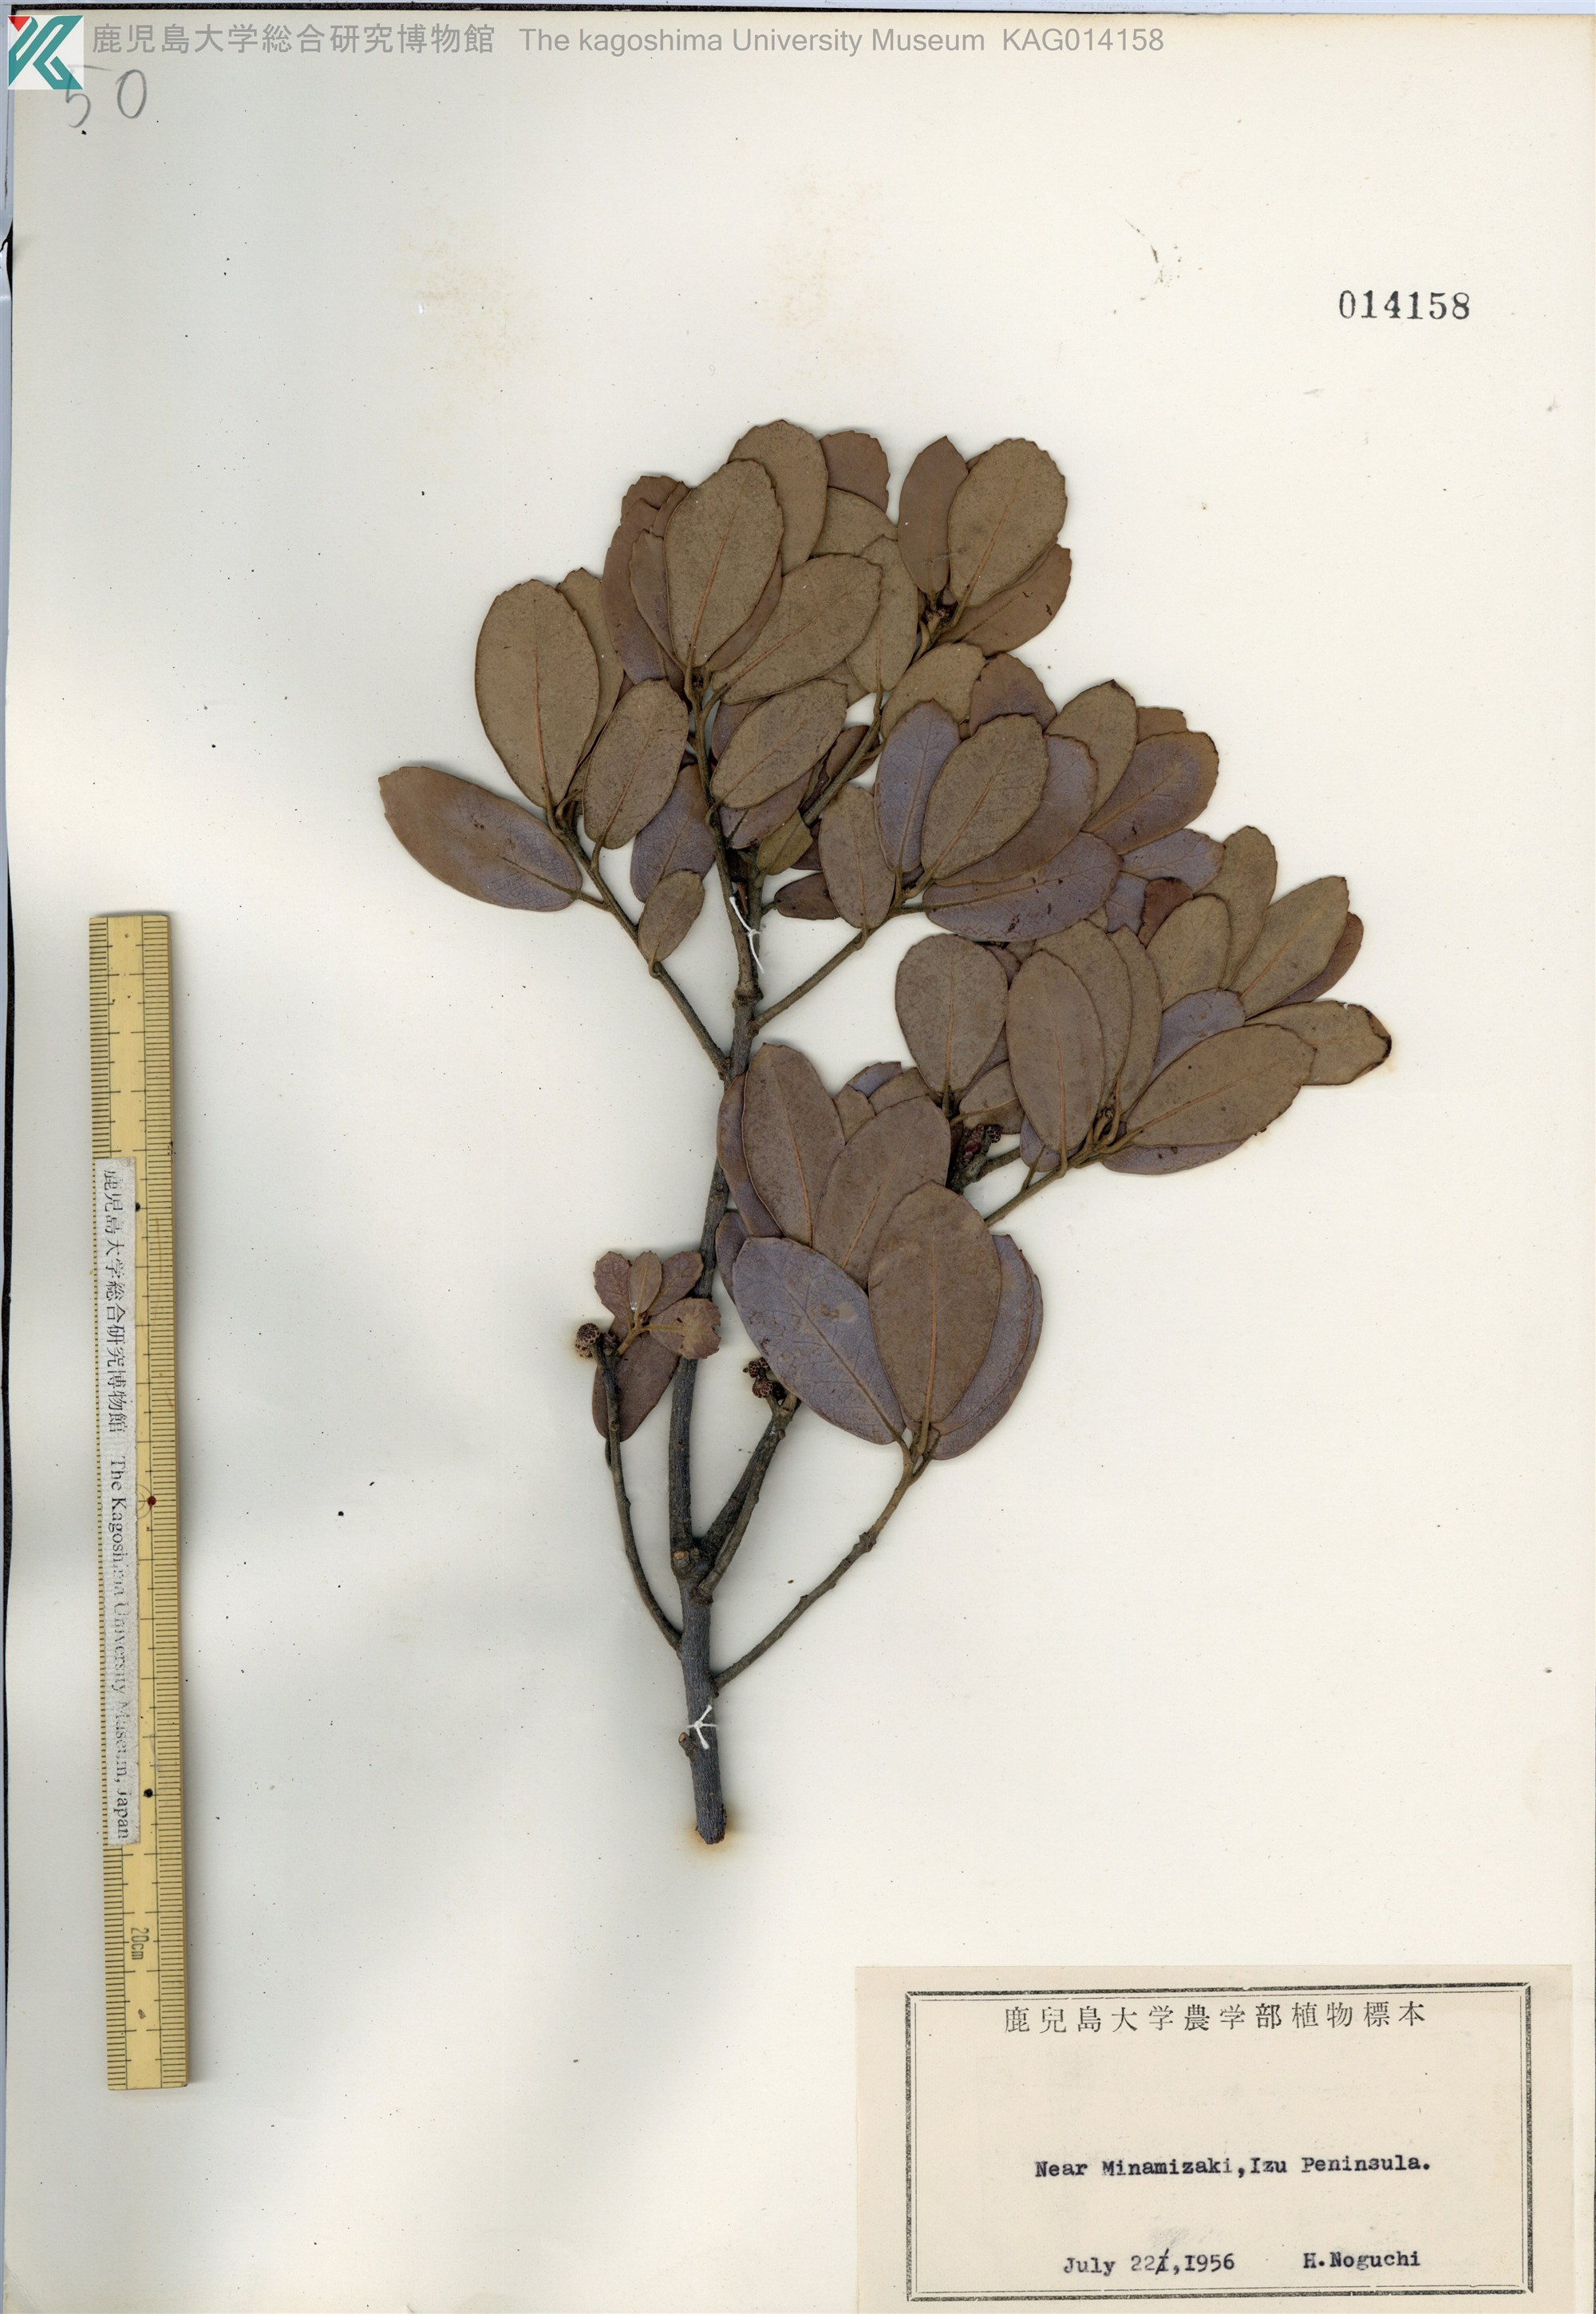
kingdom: Plantae
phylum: Tracheophyta
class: Magnoliopsida
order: Fagales
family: Fagaceae
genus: Quercus
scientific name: Quercus phillyraeoides
